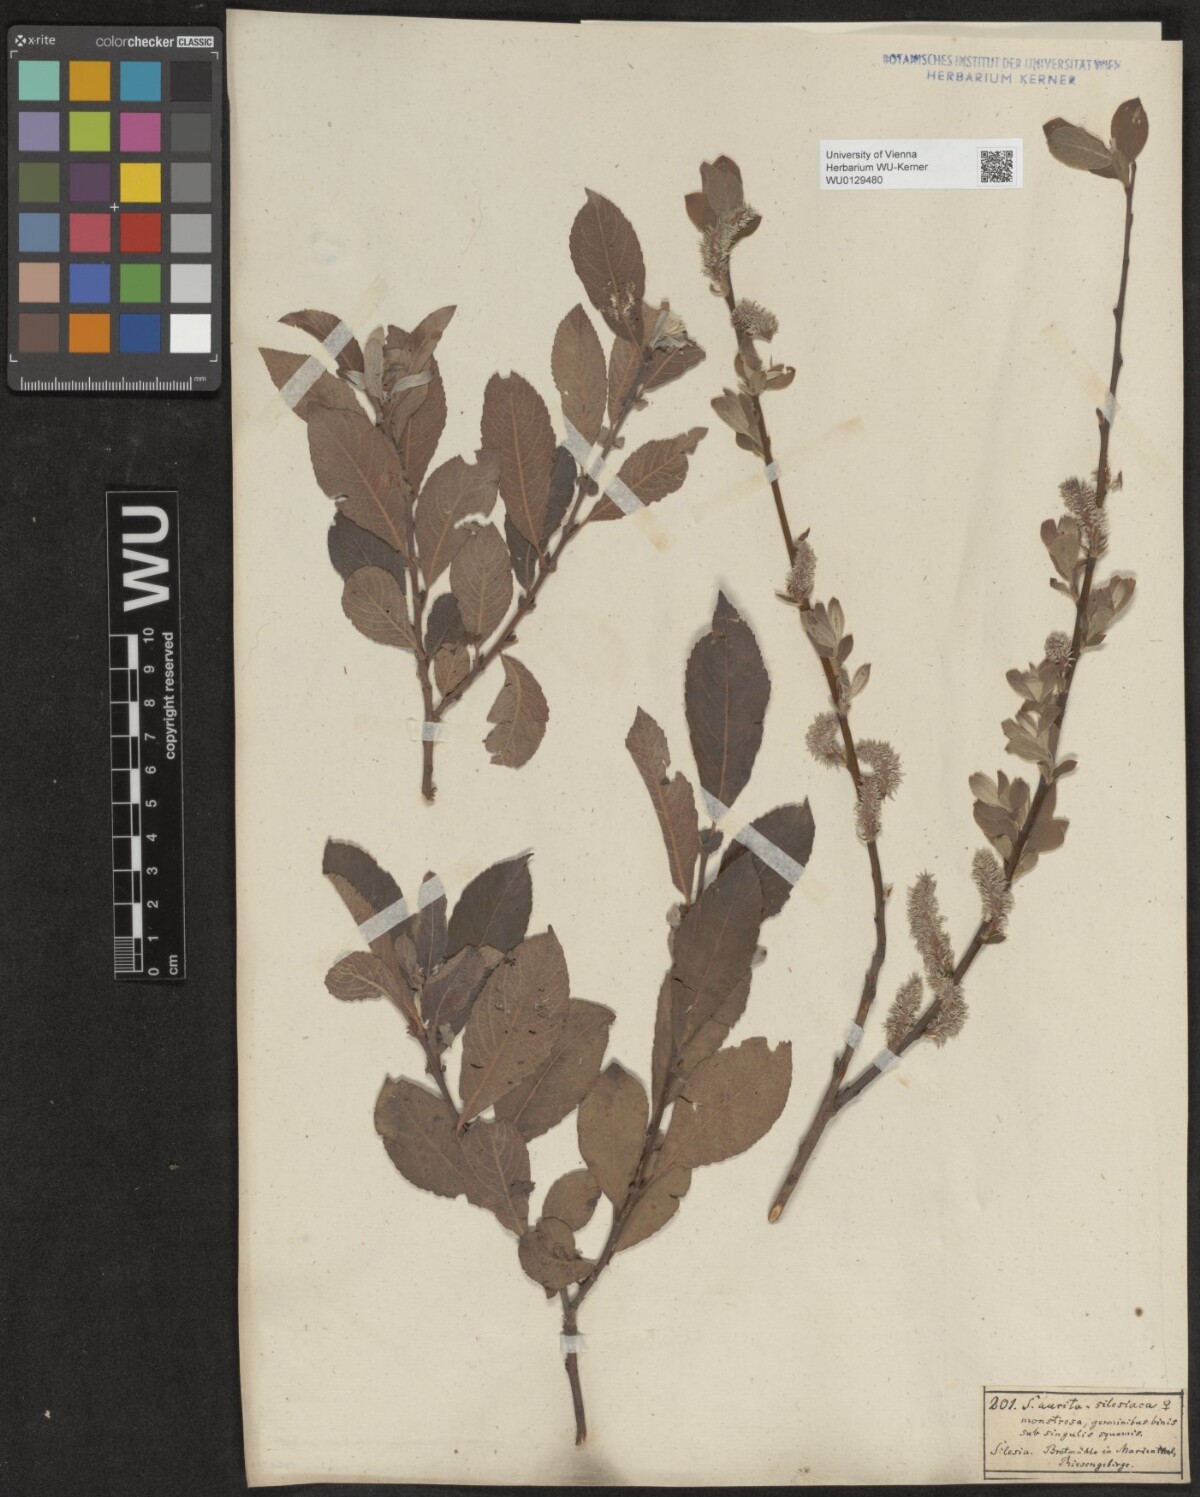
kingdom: Plantae
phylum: Tracheophyta
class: Magnoliopsida
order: Malpighiales
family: Salicaceae
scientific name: Salicaceae
